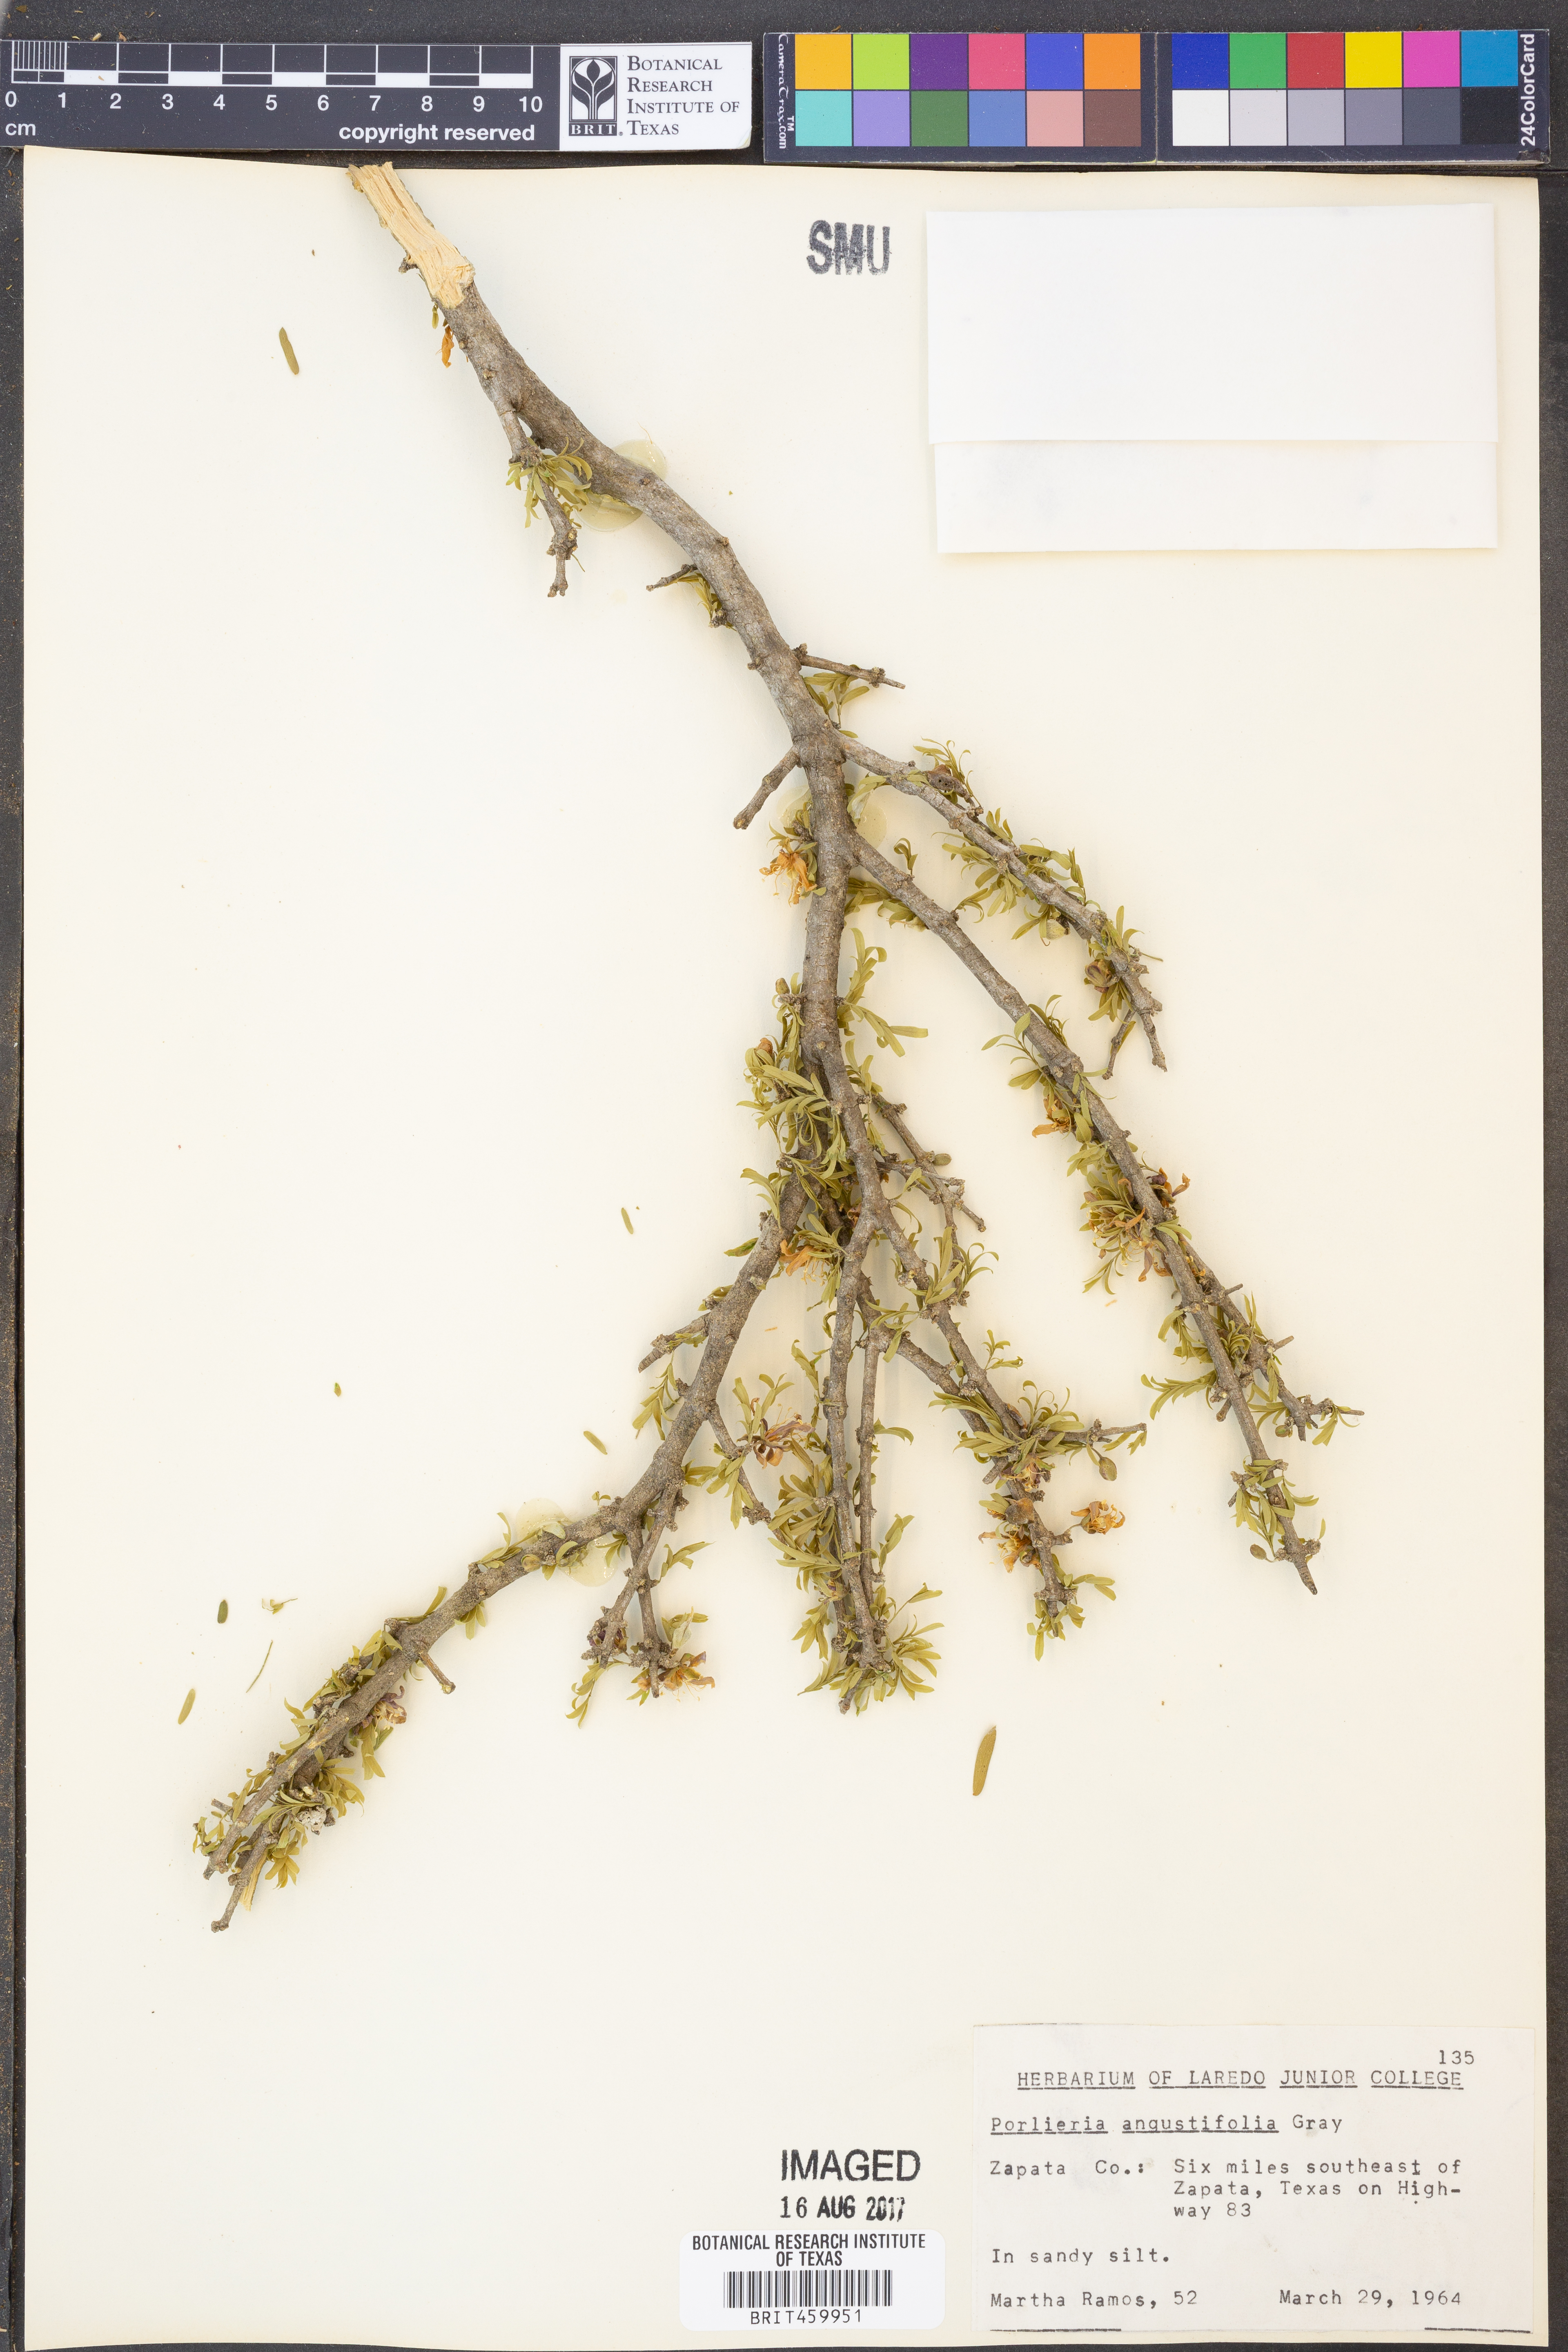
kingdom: Plantae
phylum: Tracheophyta
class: Magnoliopsida
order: Zygophyllales
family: Zygophyllaceae
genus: Porlieria
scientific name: Porlieria angustifolia
